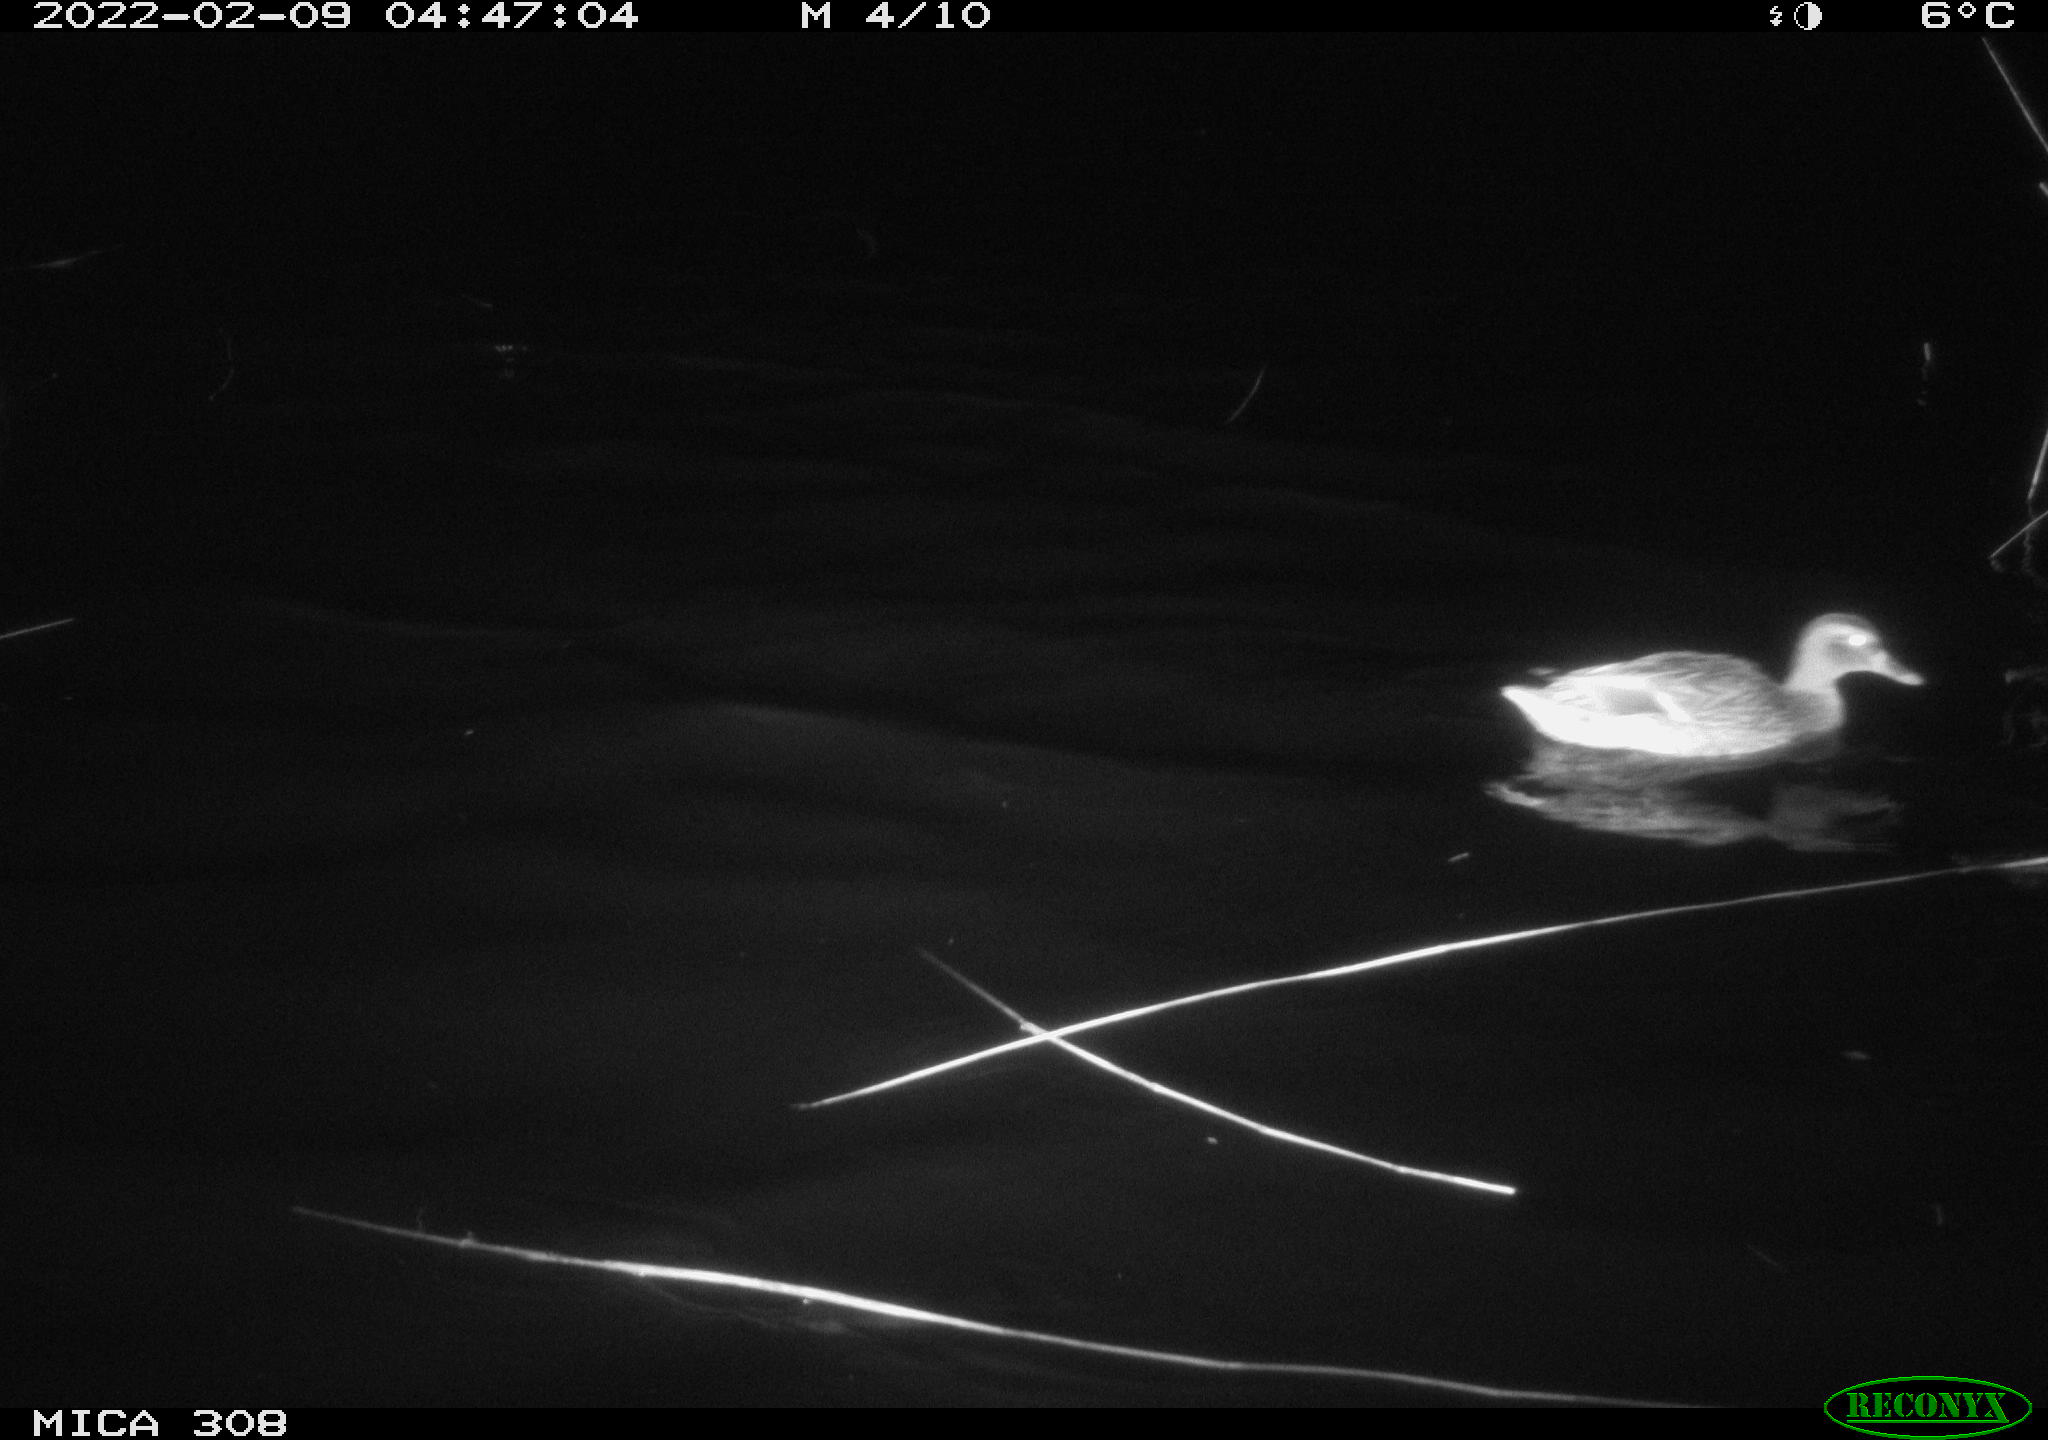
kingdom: Animalia
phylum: Chordata
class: Aves
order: Anseriformes
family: Anatidae
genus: Anas
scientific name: Anas platyrhynchos
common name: Mallard
